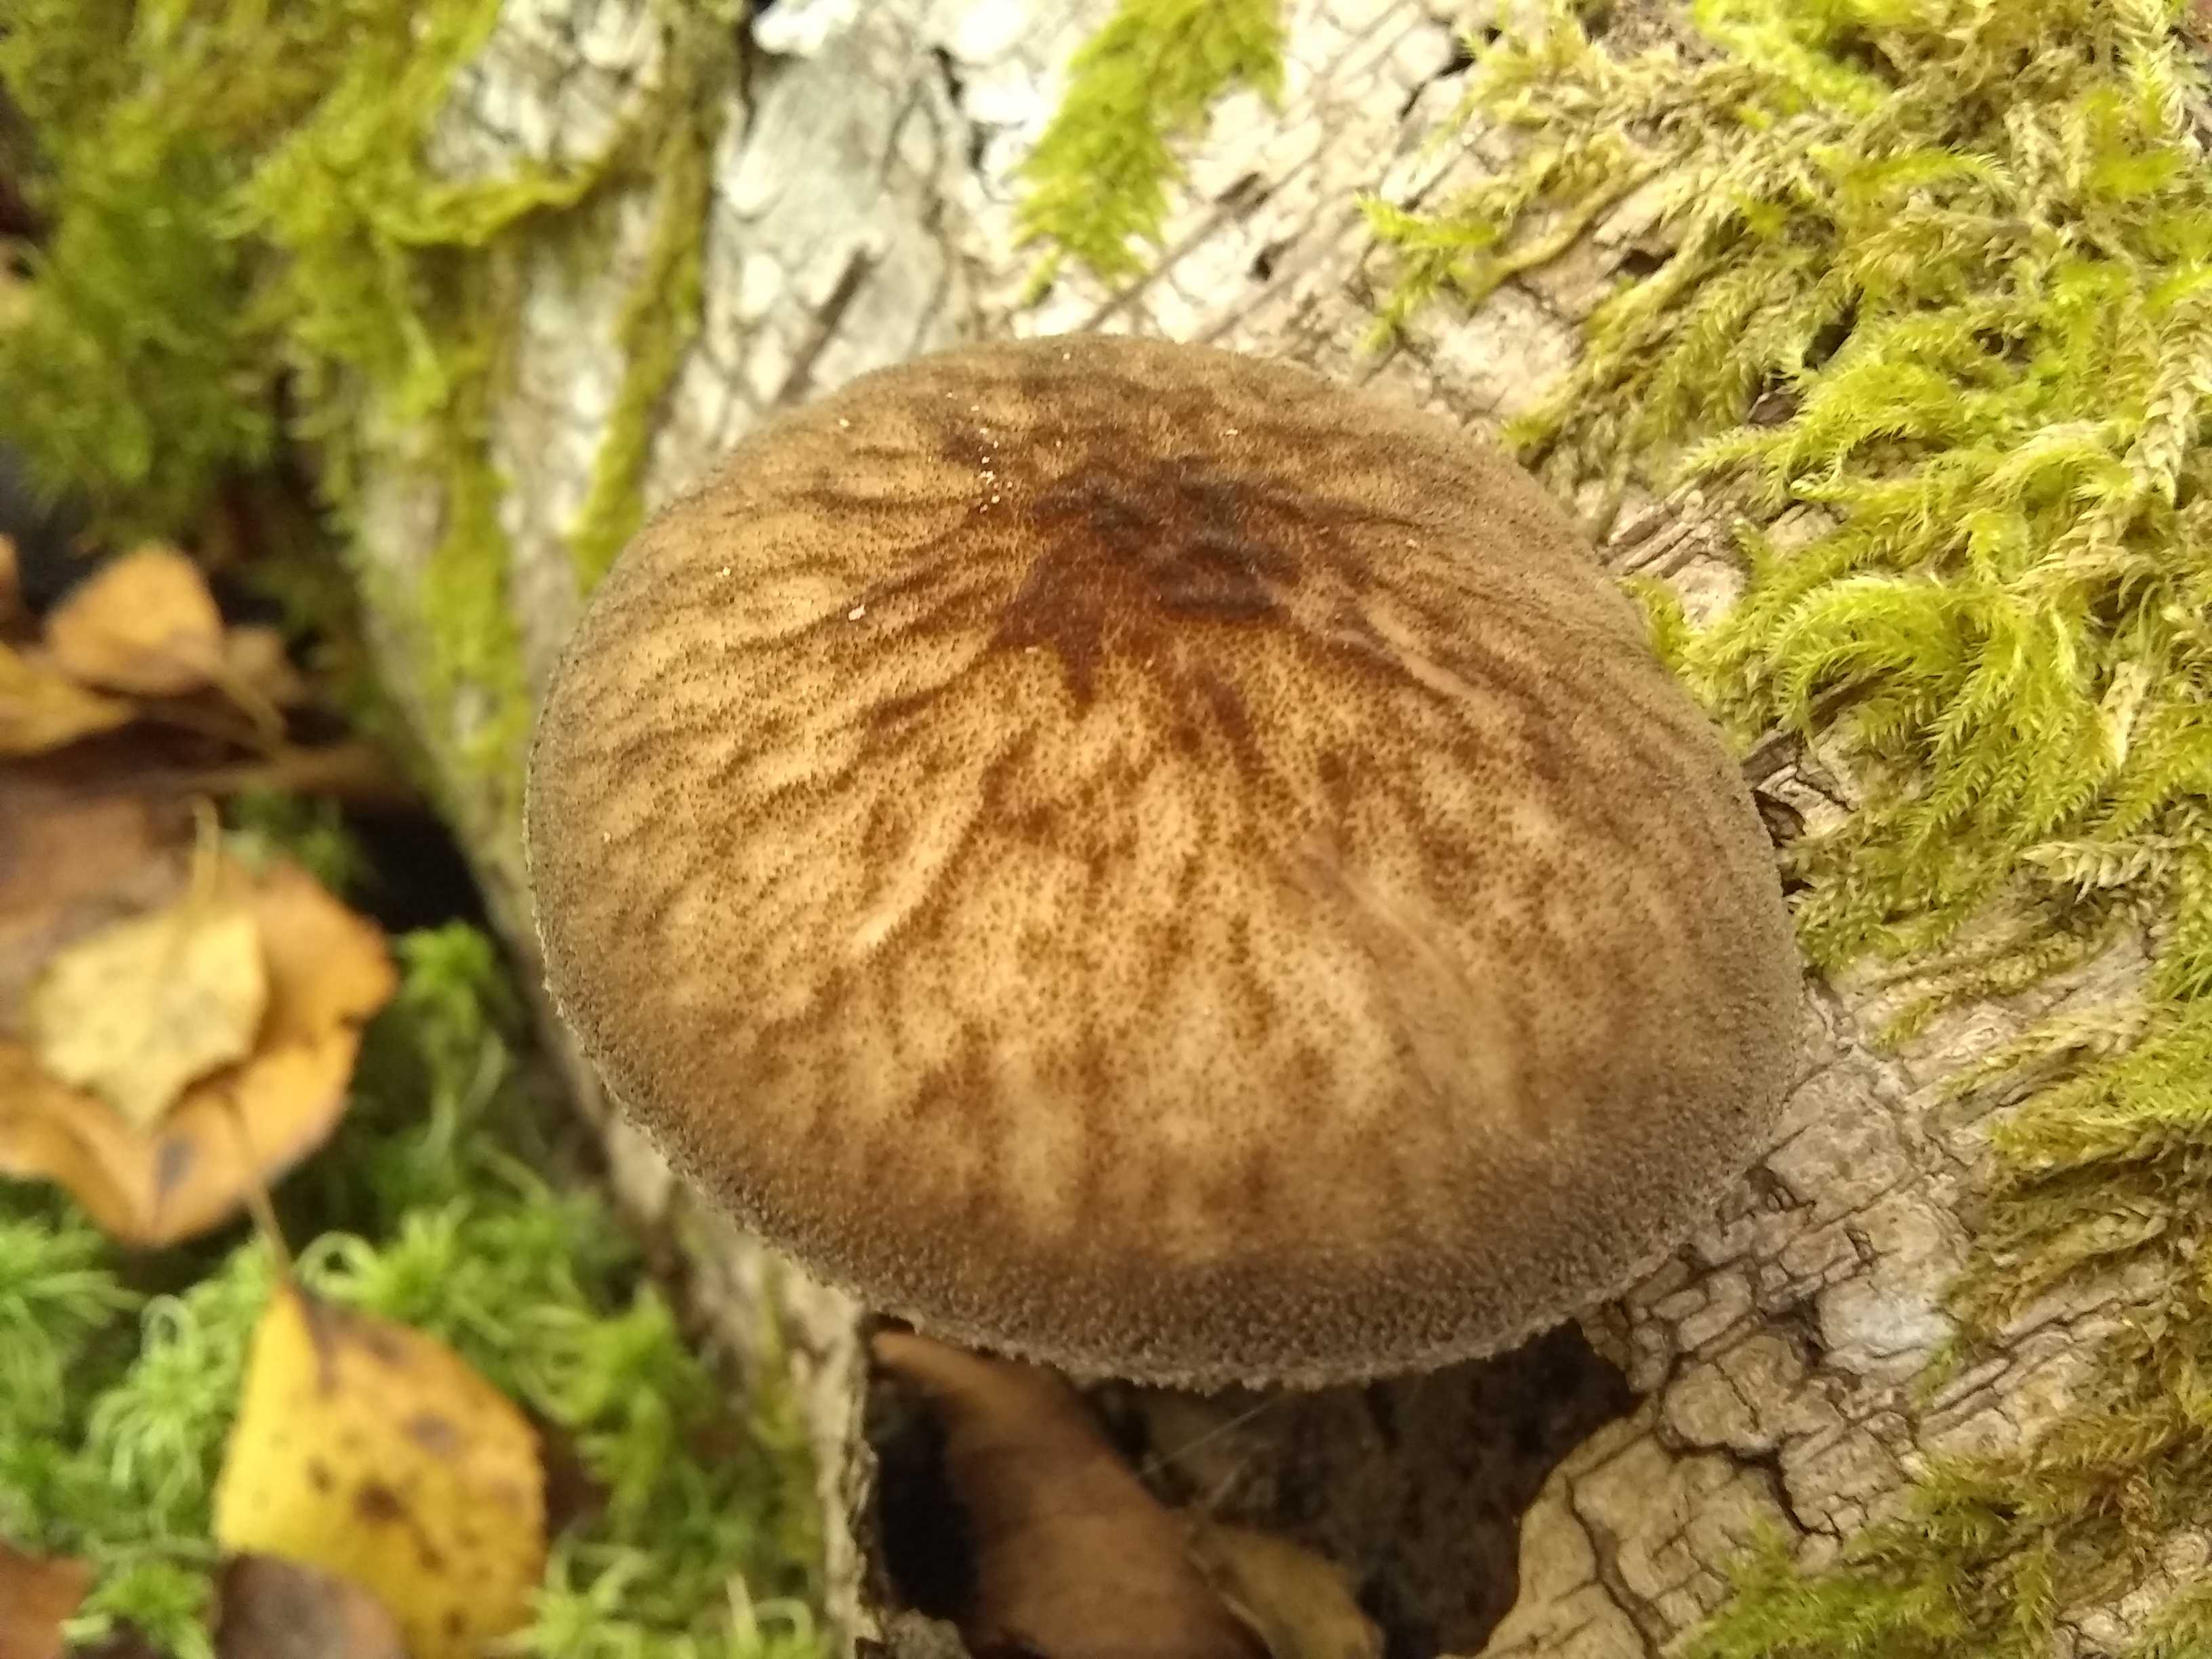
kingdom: Fungi
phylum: Basidiomycota
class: Agaricomycetes
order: Agaricales
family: Pluteaceae
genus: Pluteus
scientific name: Pluteus umbrosus
